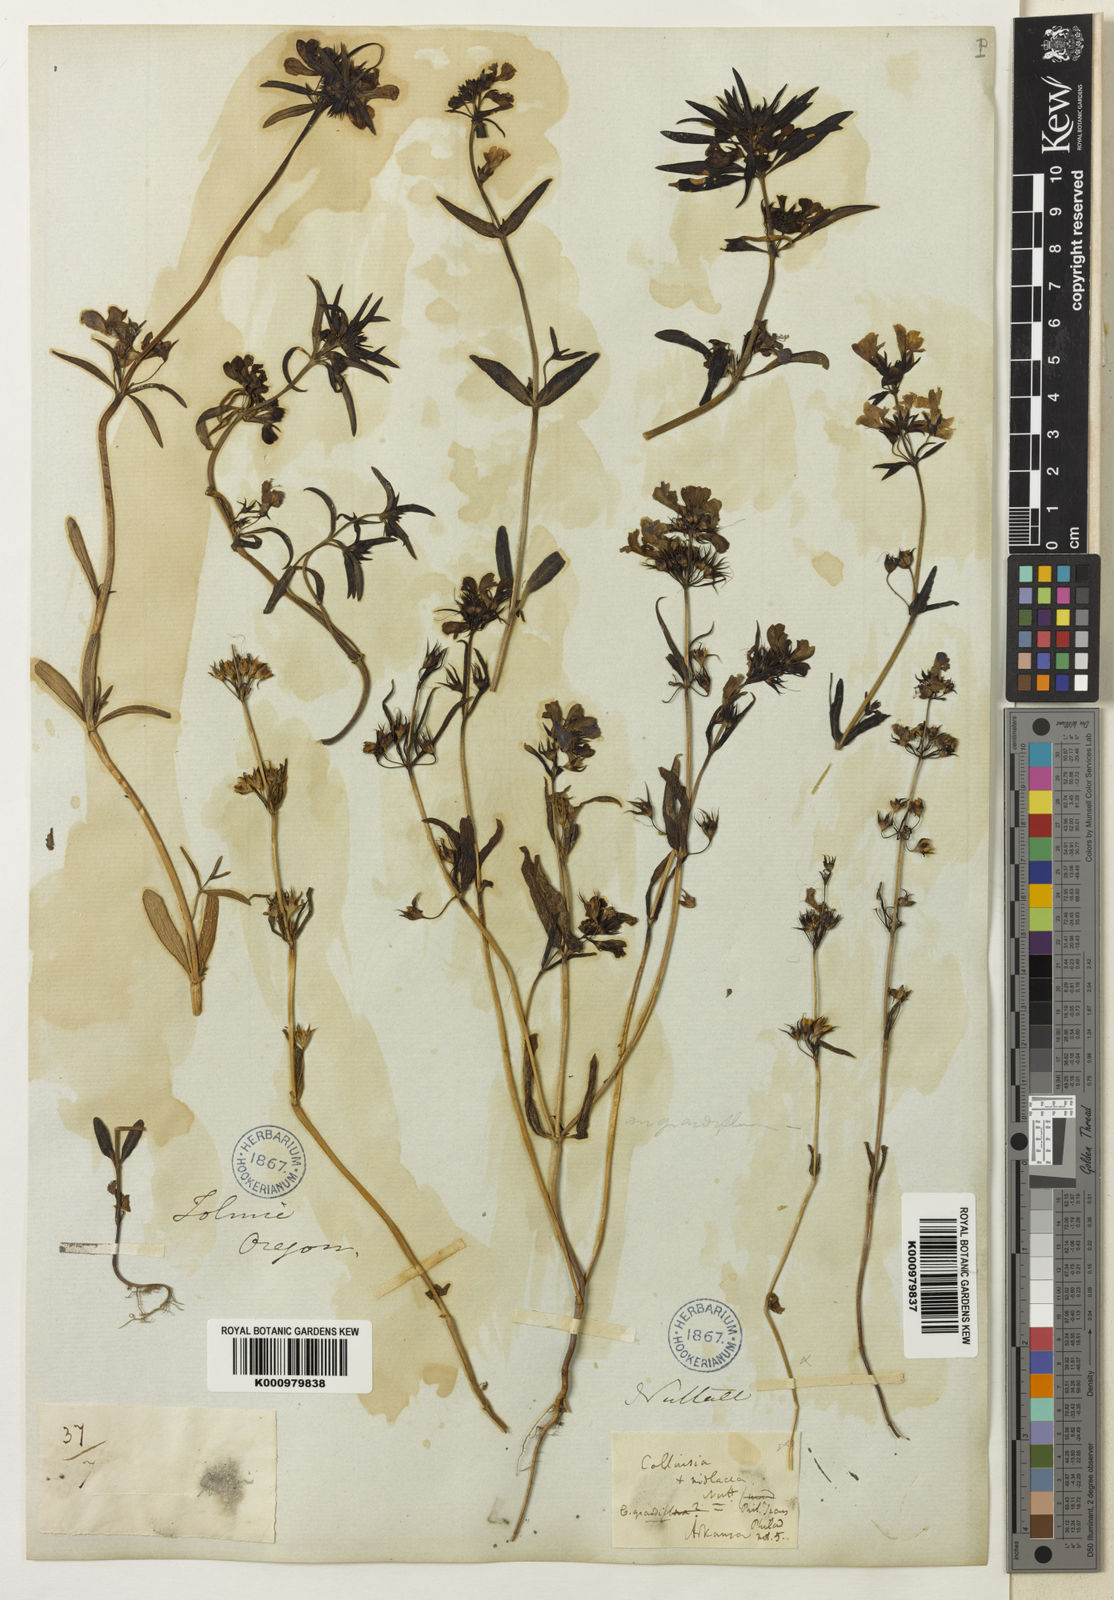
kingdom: Plantae
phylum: Tracheophyta
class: Magnoliopsida
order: Lamiales
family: Plantaginaceae
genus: Collinsia
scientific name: Collinsia grandiflora
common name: Large-flower blue-eyed-mary
